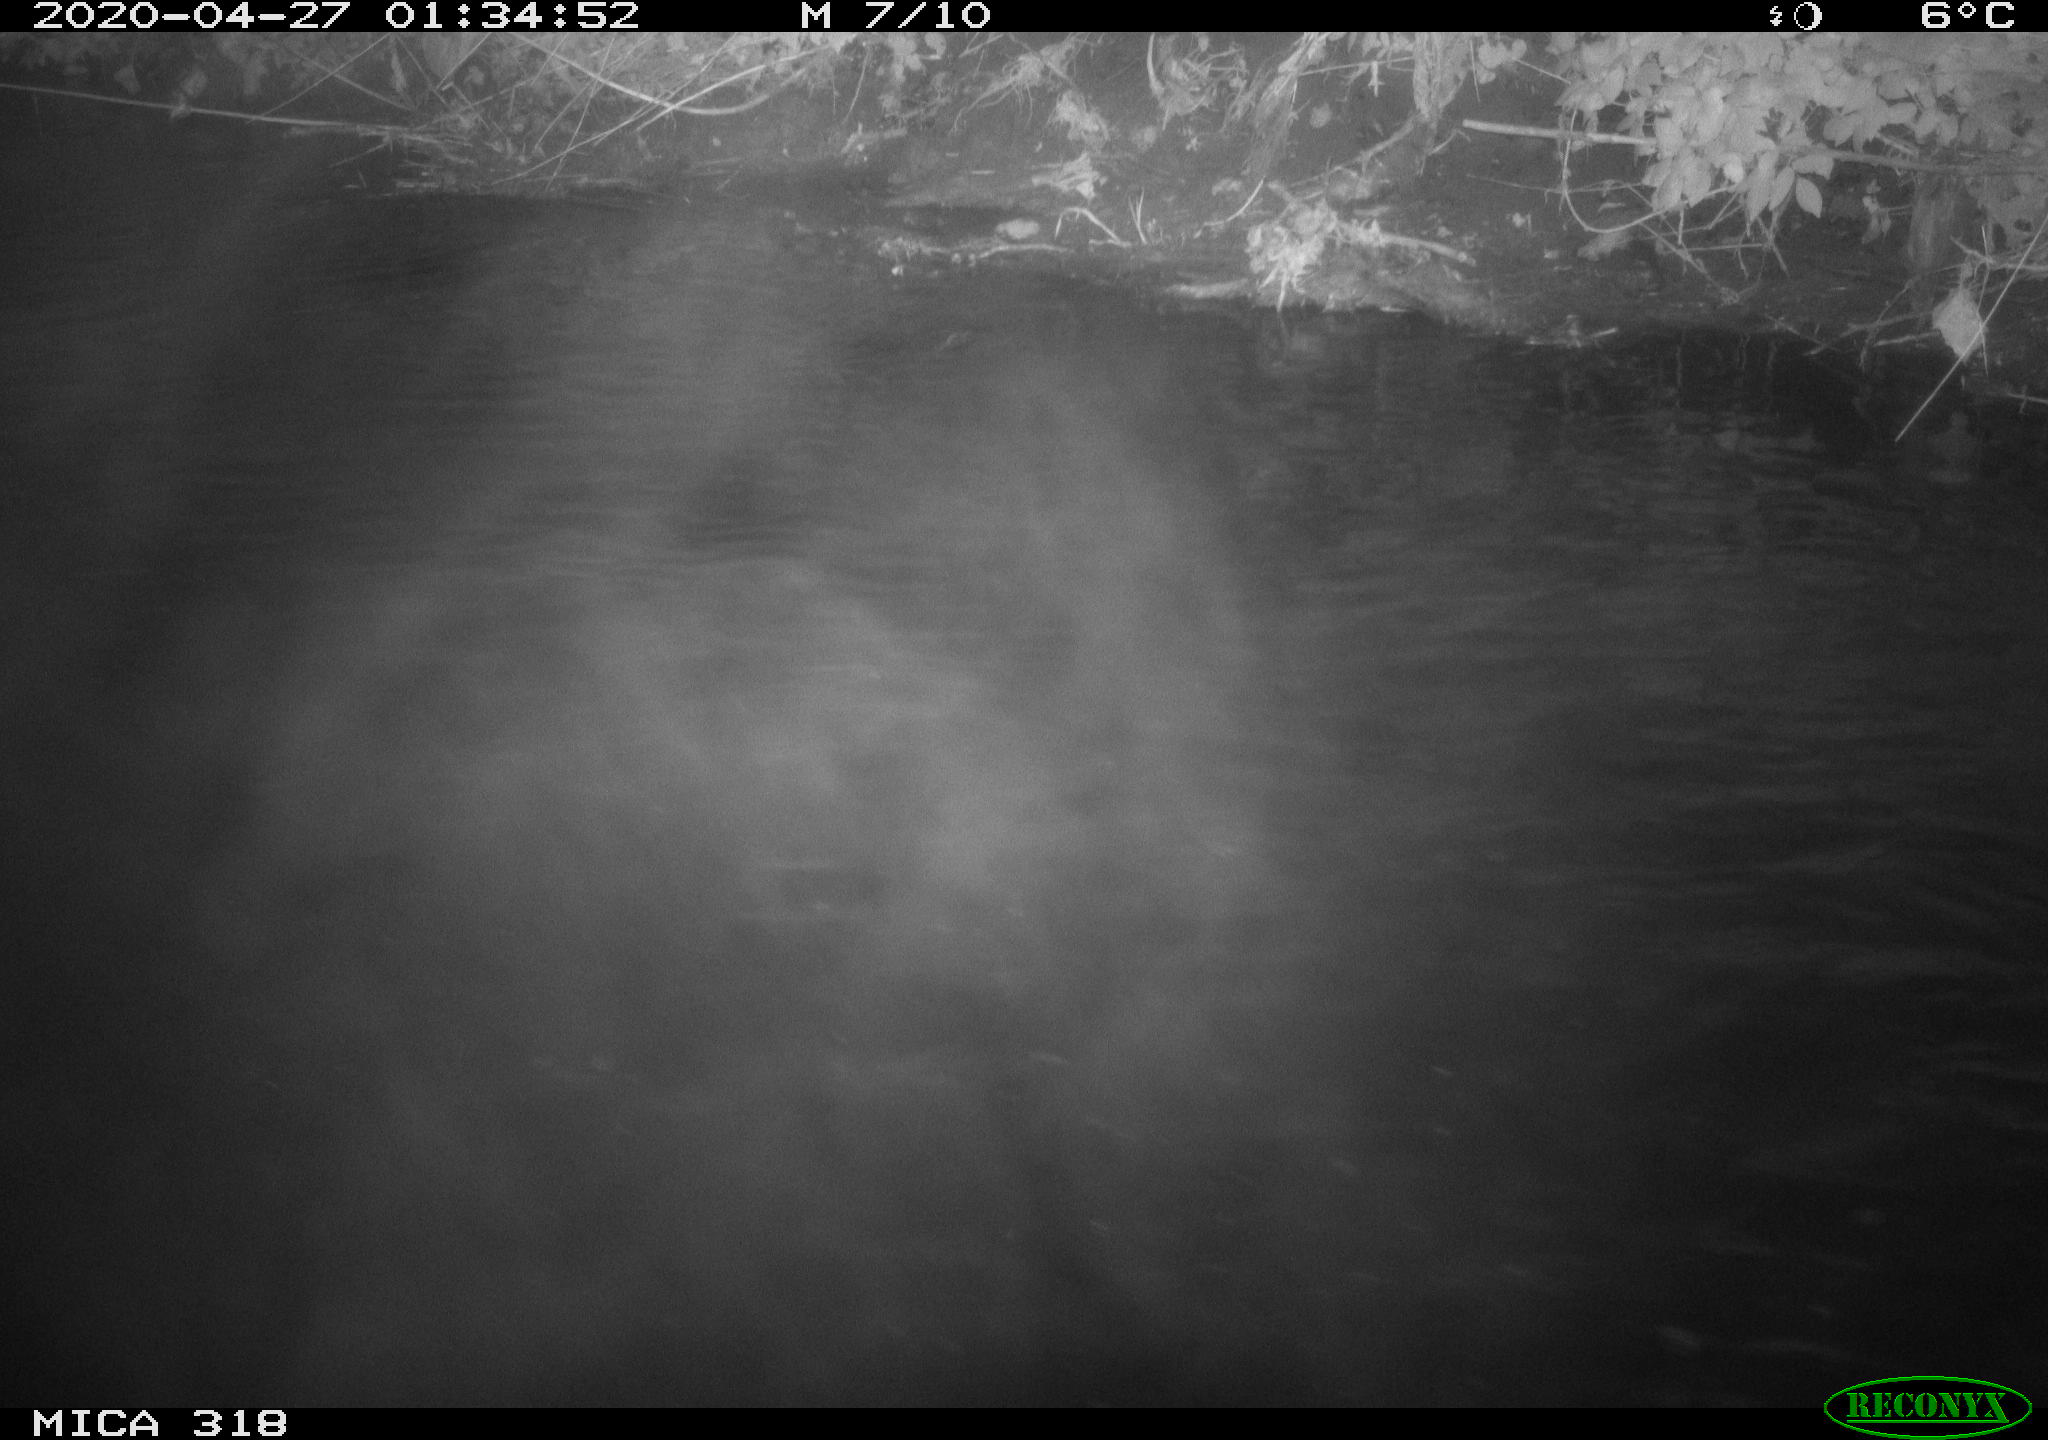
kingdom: Animalia
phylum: Chordata
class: Aves
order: Pelecaniformes
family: Ardeidae
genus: Ardea
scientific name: Ardea cinerea
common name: Grey heron
